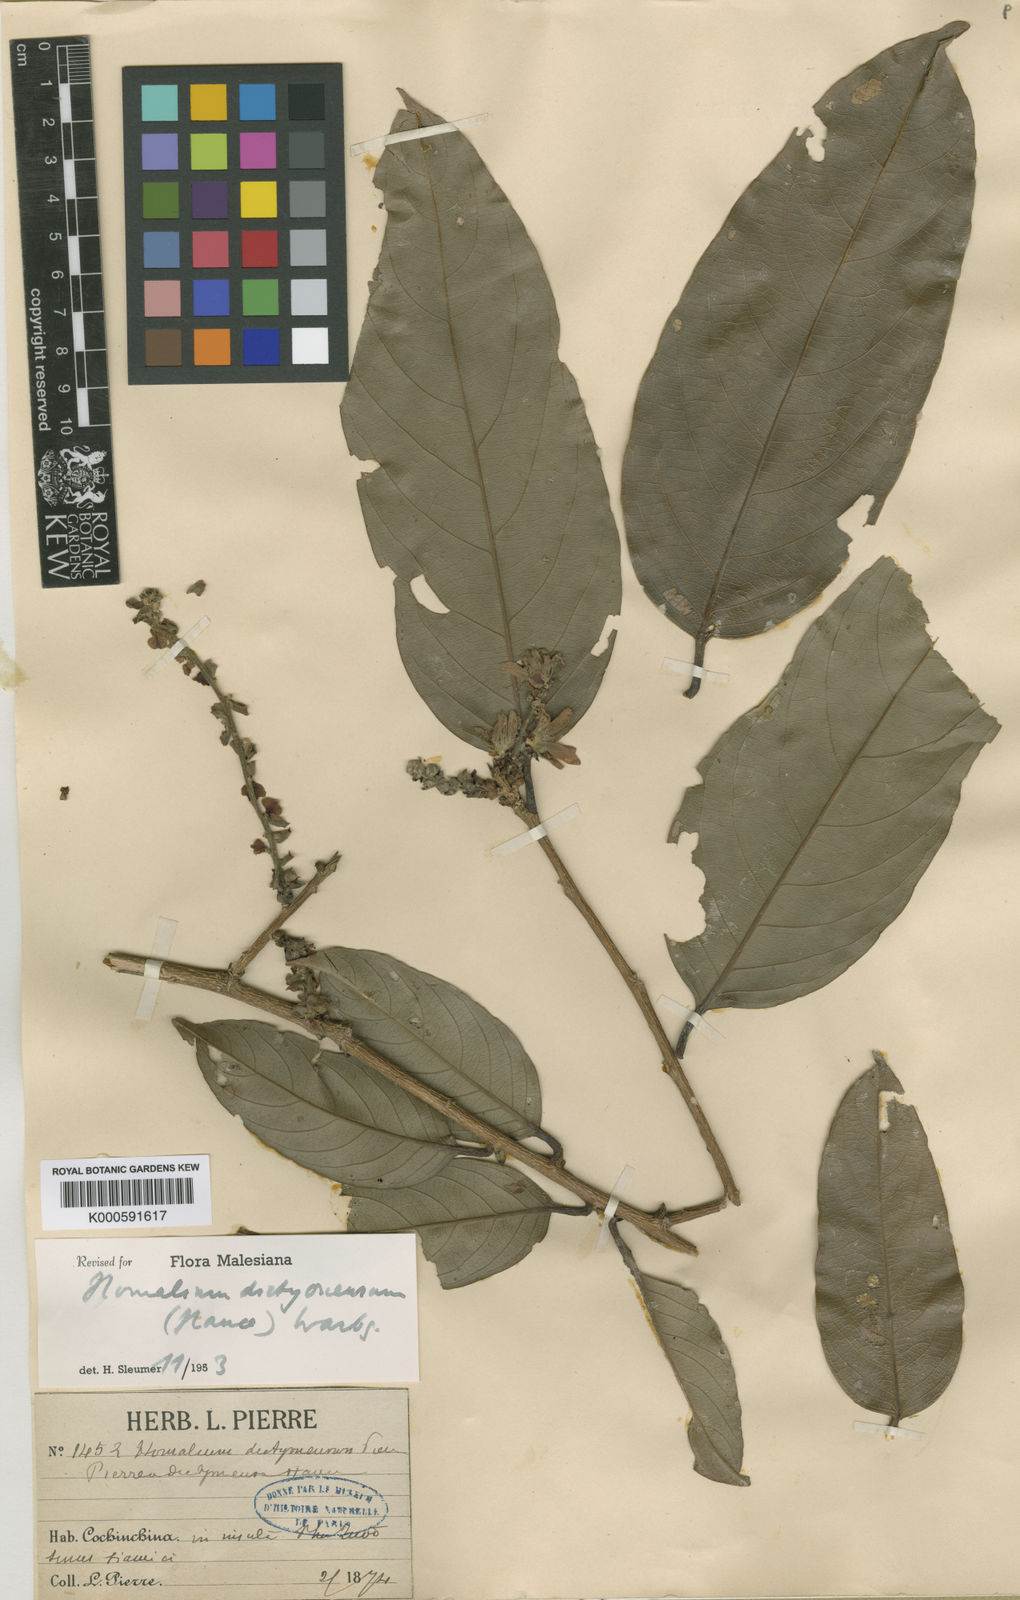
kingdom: Plantae
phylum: Tracheophyta
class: Magnoliopsida
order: Malpighiales
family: Salicaceae
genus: Homalium
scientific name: Homalium dictyoneurum
